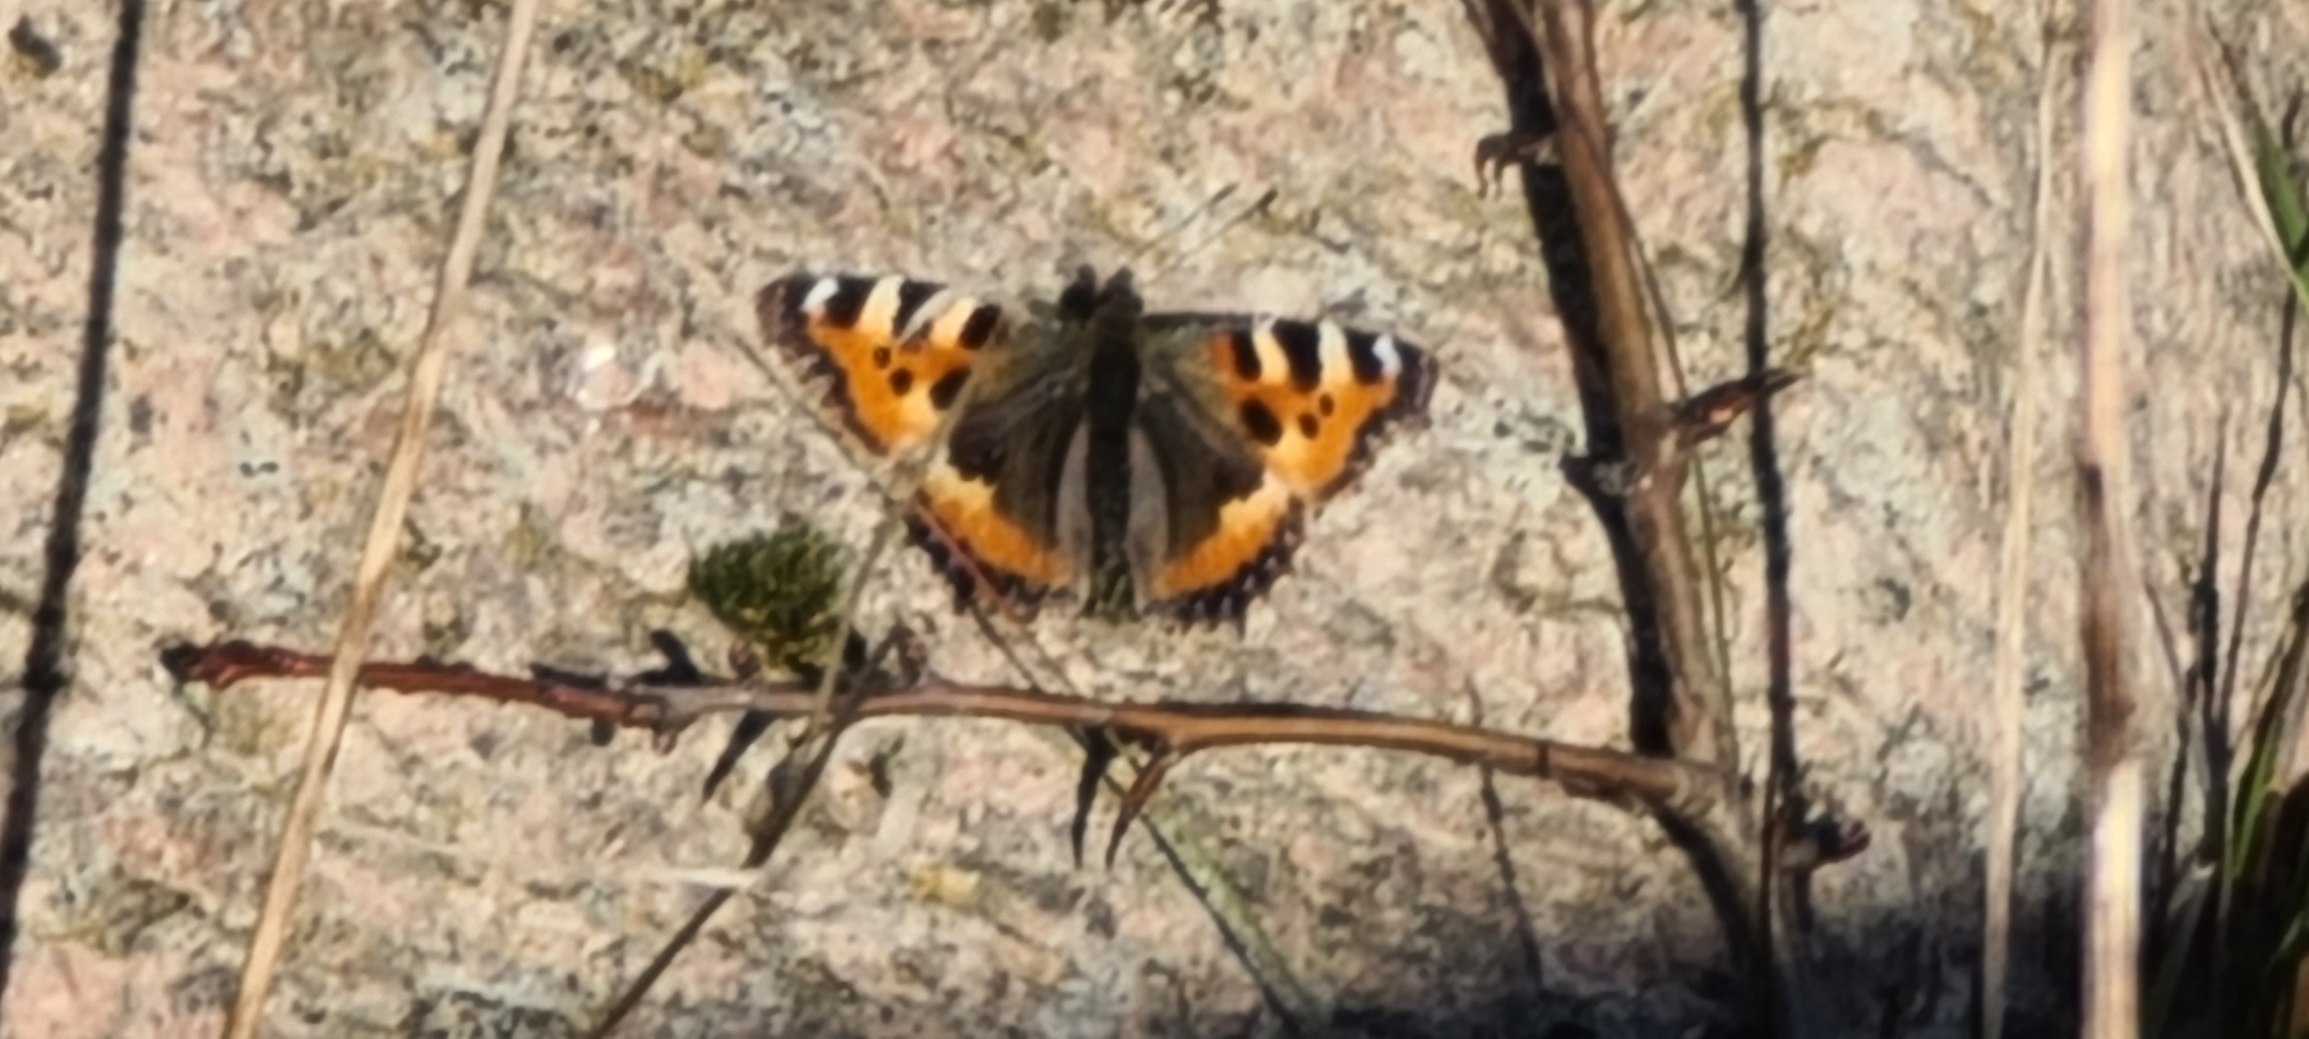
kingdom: Animalia
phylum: Arthropoda
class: Insecta
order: Lepidoptera
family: Nymphalidae
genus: Aglais
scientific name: Aglais urticae
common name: Nældens takvinge
